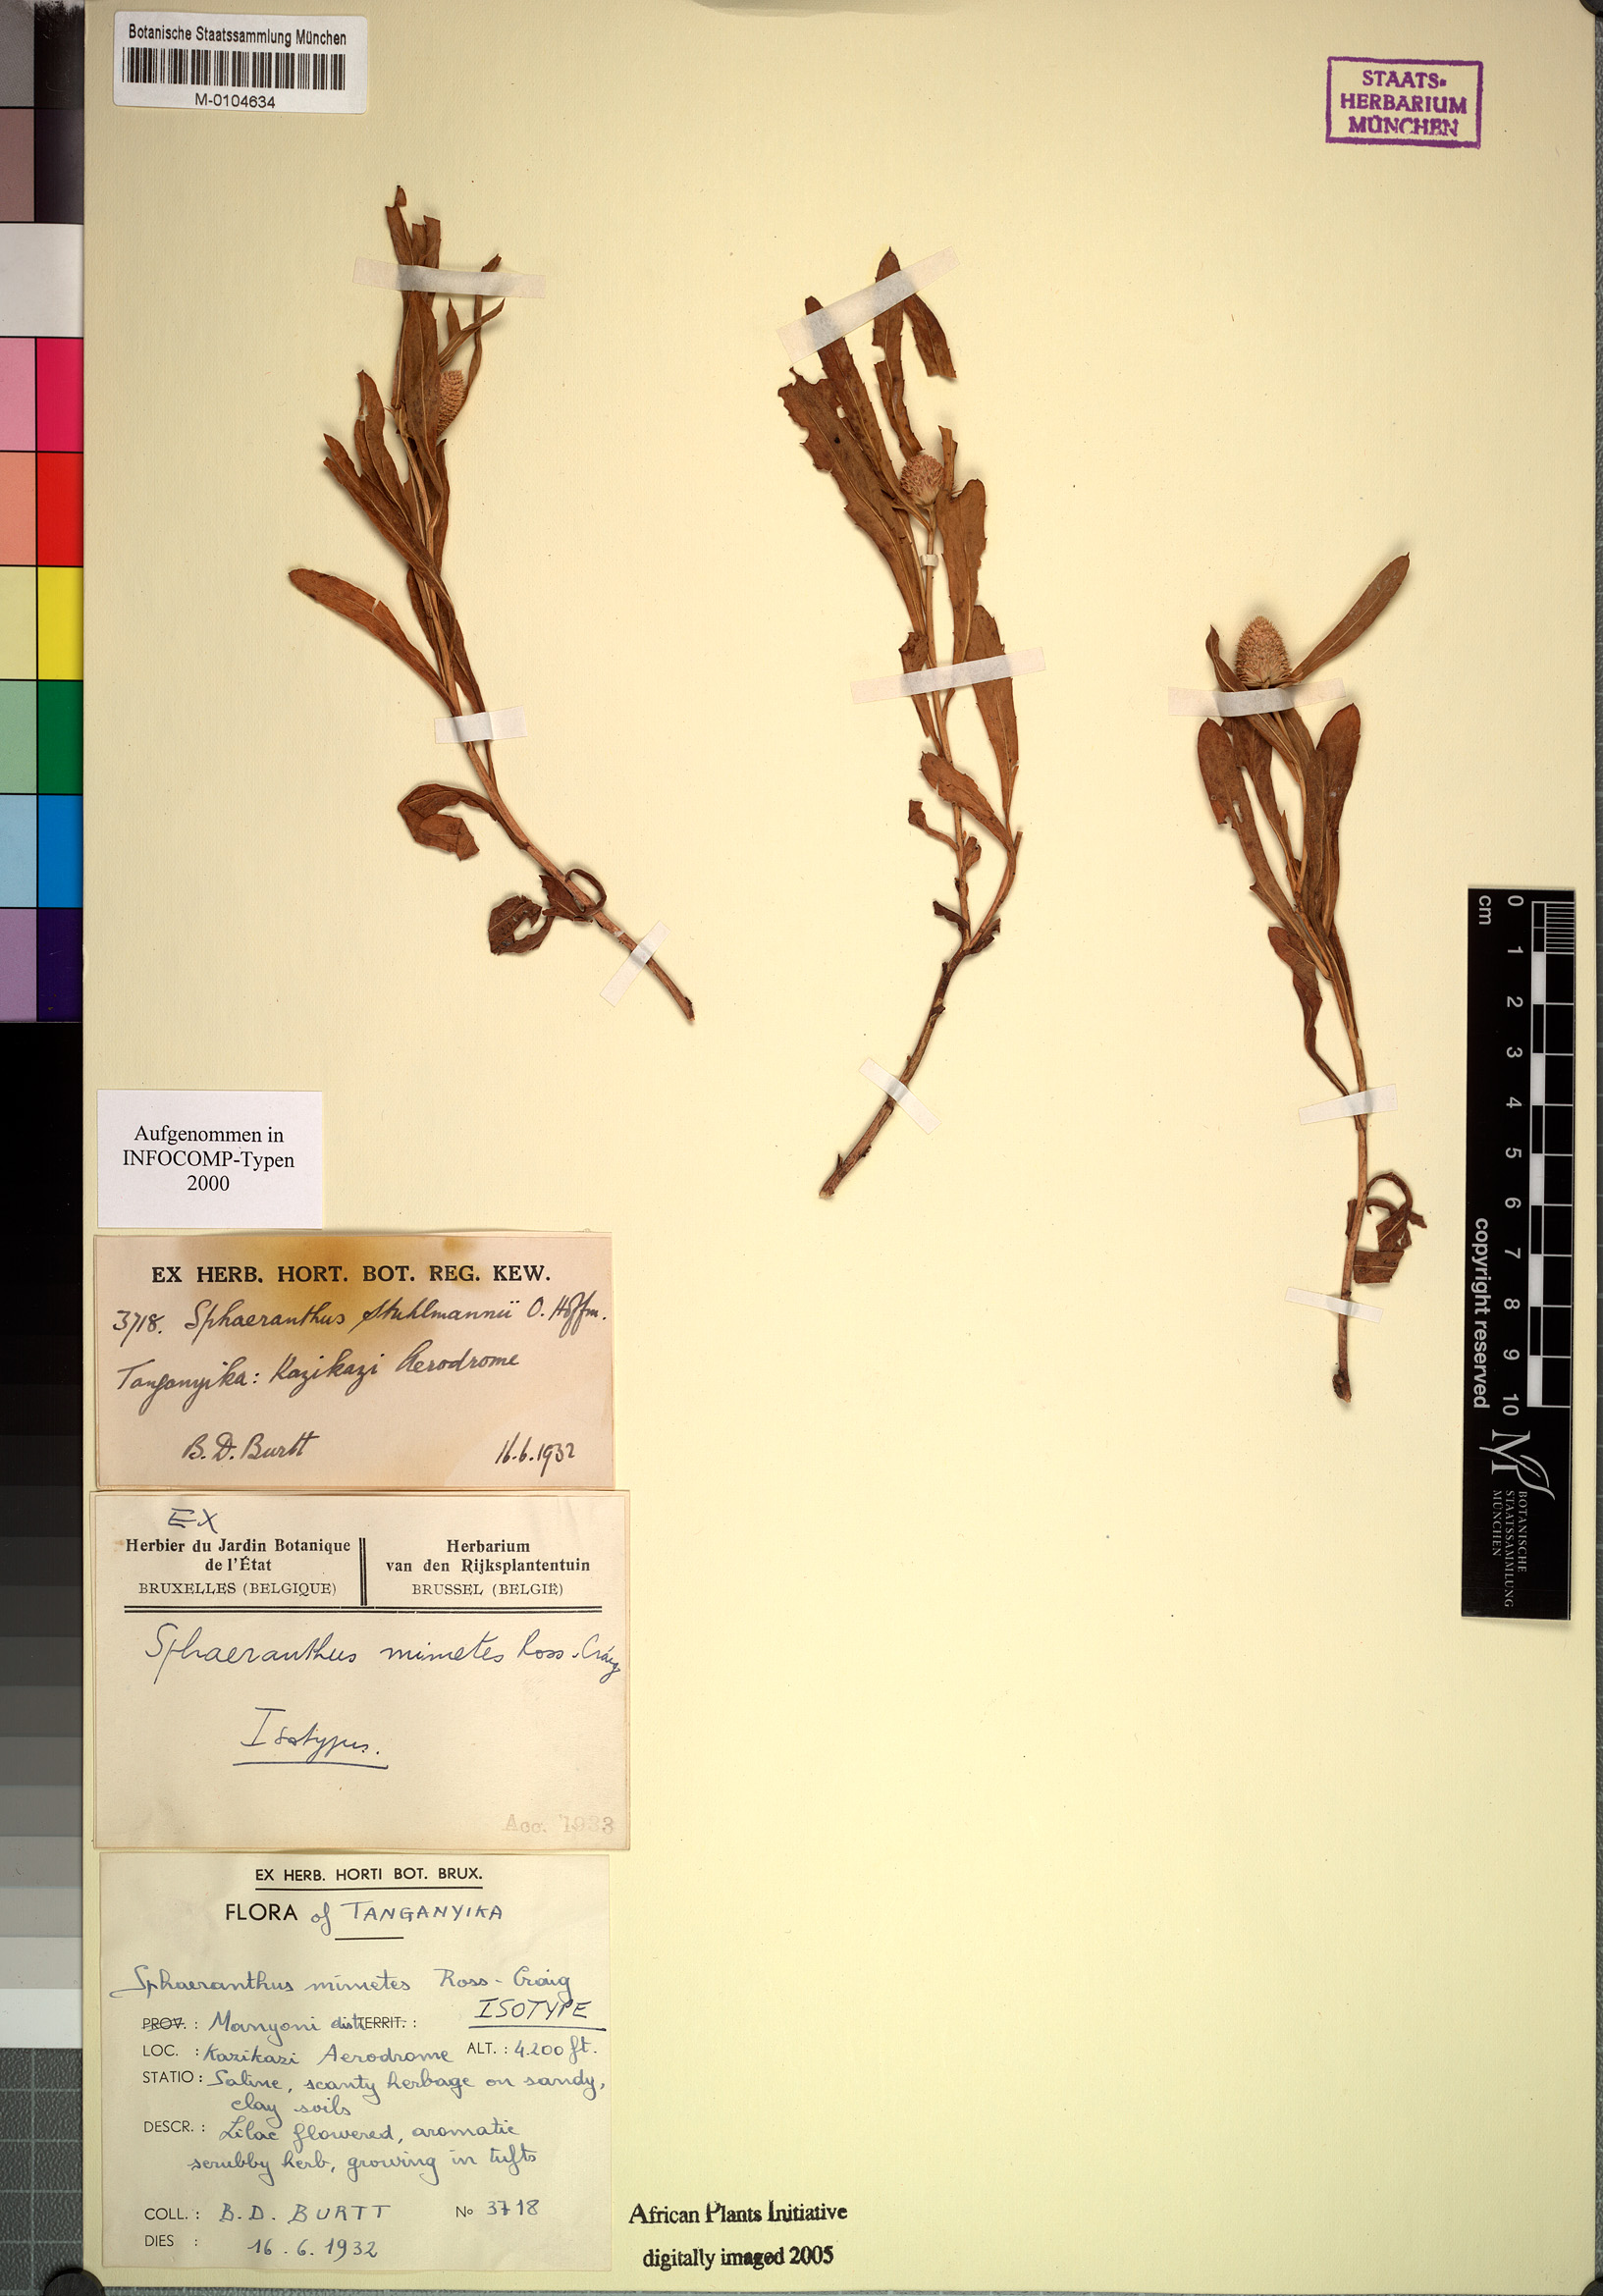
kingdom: Plantae
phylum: Tracheophyta
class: Magnoliopsida
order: Asterales
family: Asteraceae
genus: Sphaeranthus
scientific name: Sphaeranthus mimetes
